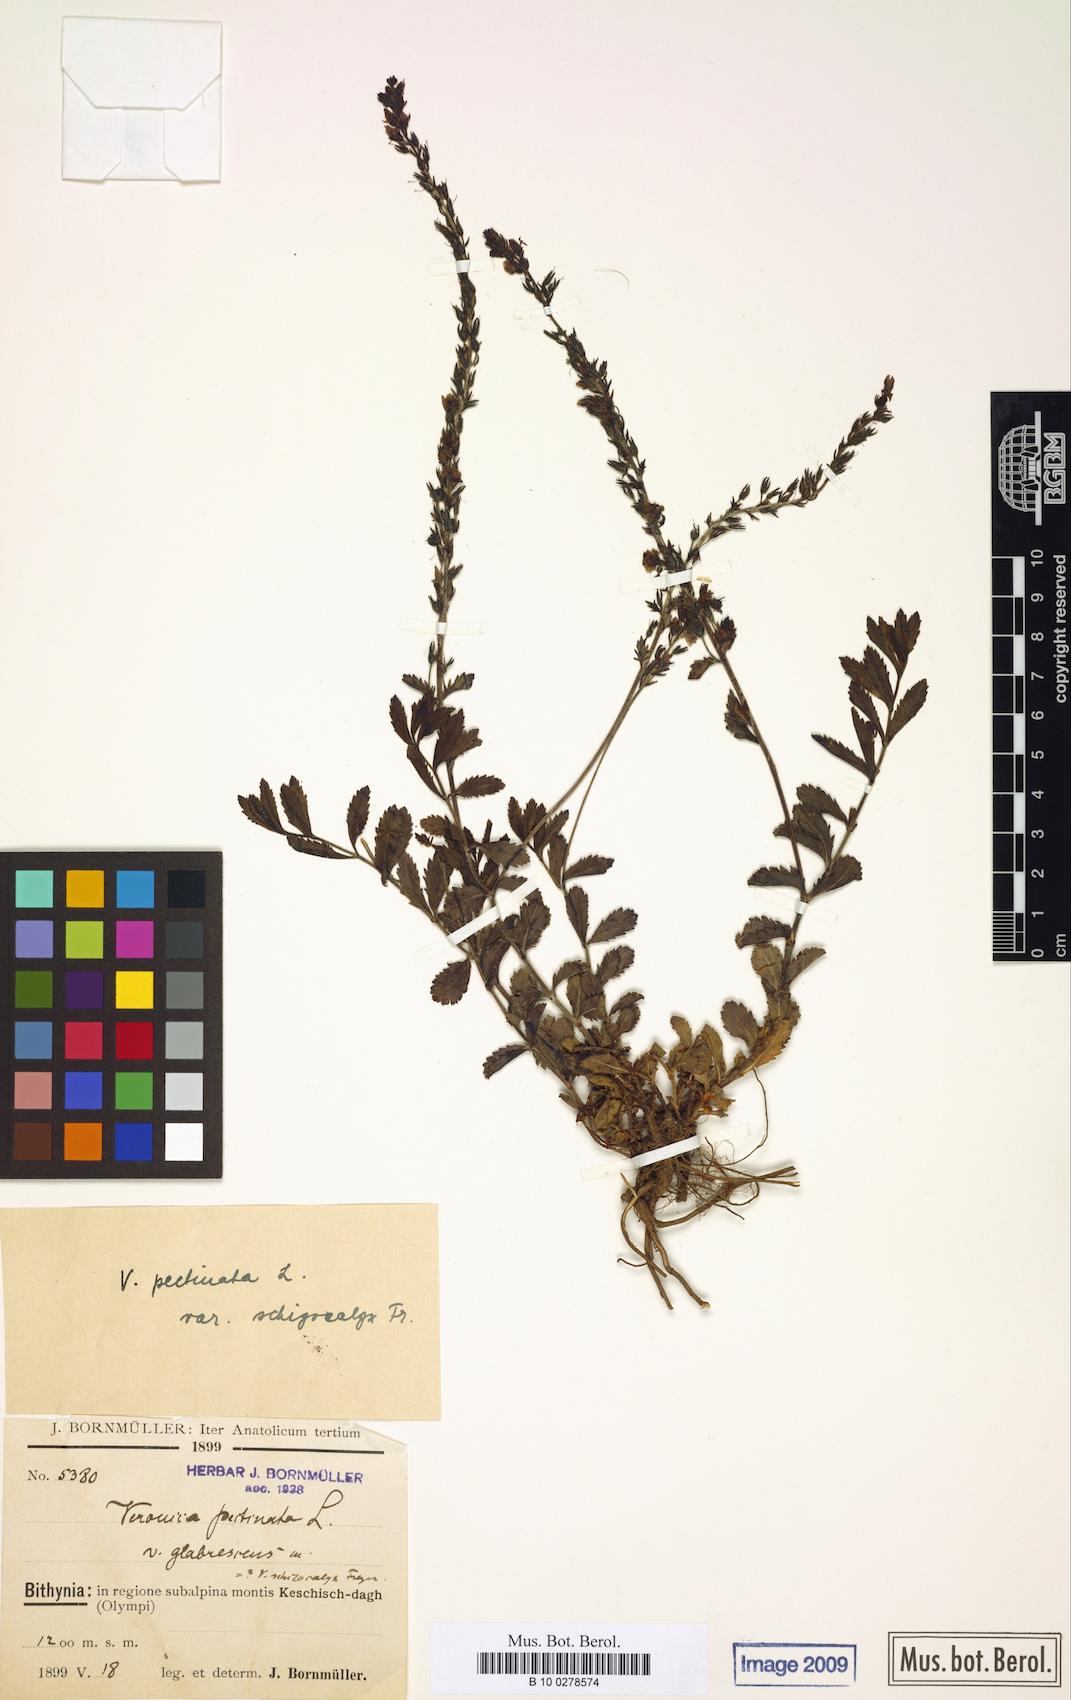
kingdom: Plantae
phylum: Tracheophyta
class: Magnoliopsida
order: Lamiales
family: Plantaginaceae
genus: Veronica
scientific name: Veronica pectinata
